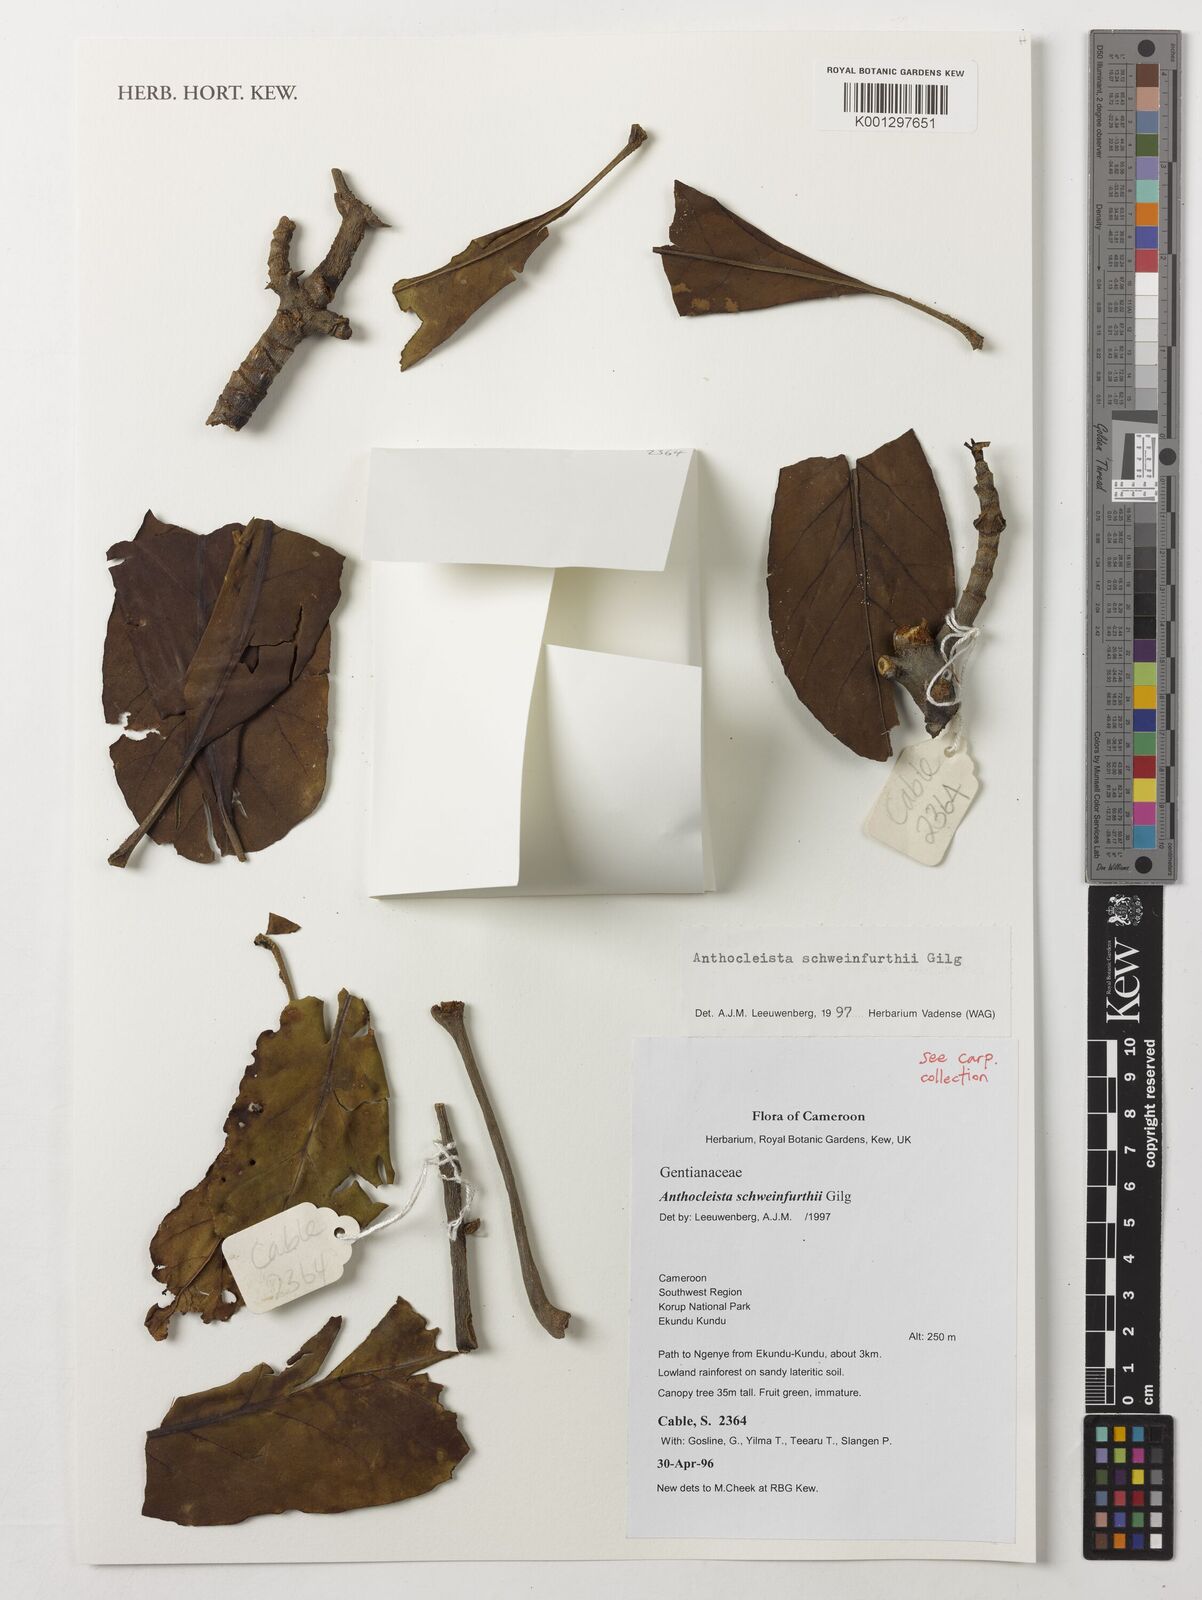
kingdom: Plantae
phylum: Tracheophyta
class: Magnoliopsida
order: Gentianales
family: Gentianaceae
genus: Anthocleista
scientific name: Anthocleista schweinfurthii
